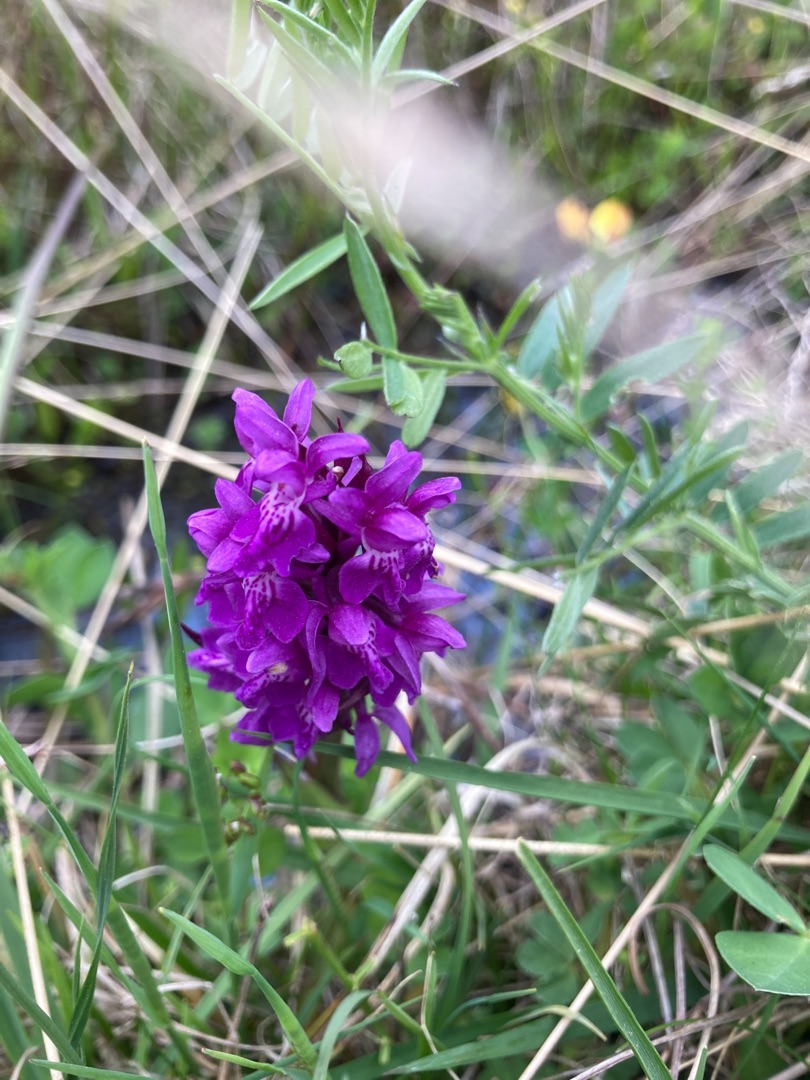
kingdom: Plantae
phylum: Tracheophyta
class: Liliopsida
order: Asparagales
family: Orchidaceae
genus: Dactylorhiza
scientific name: Dactylorhiza majalis
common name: Maj-gøgeurt
